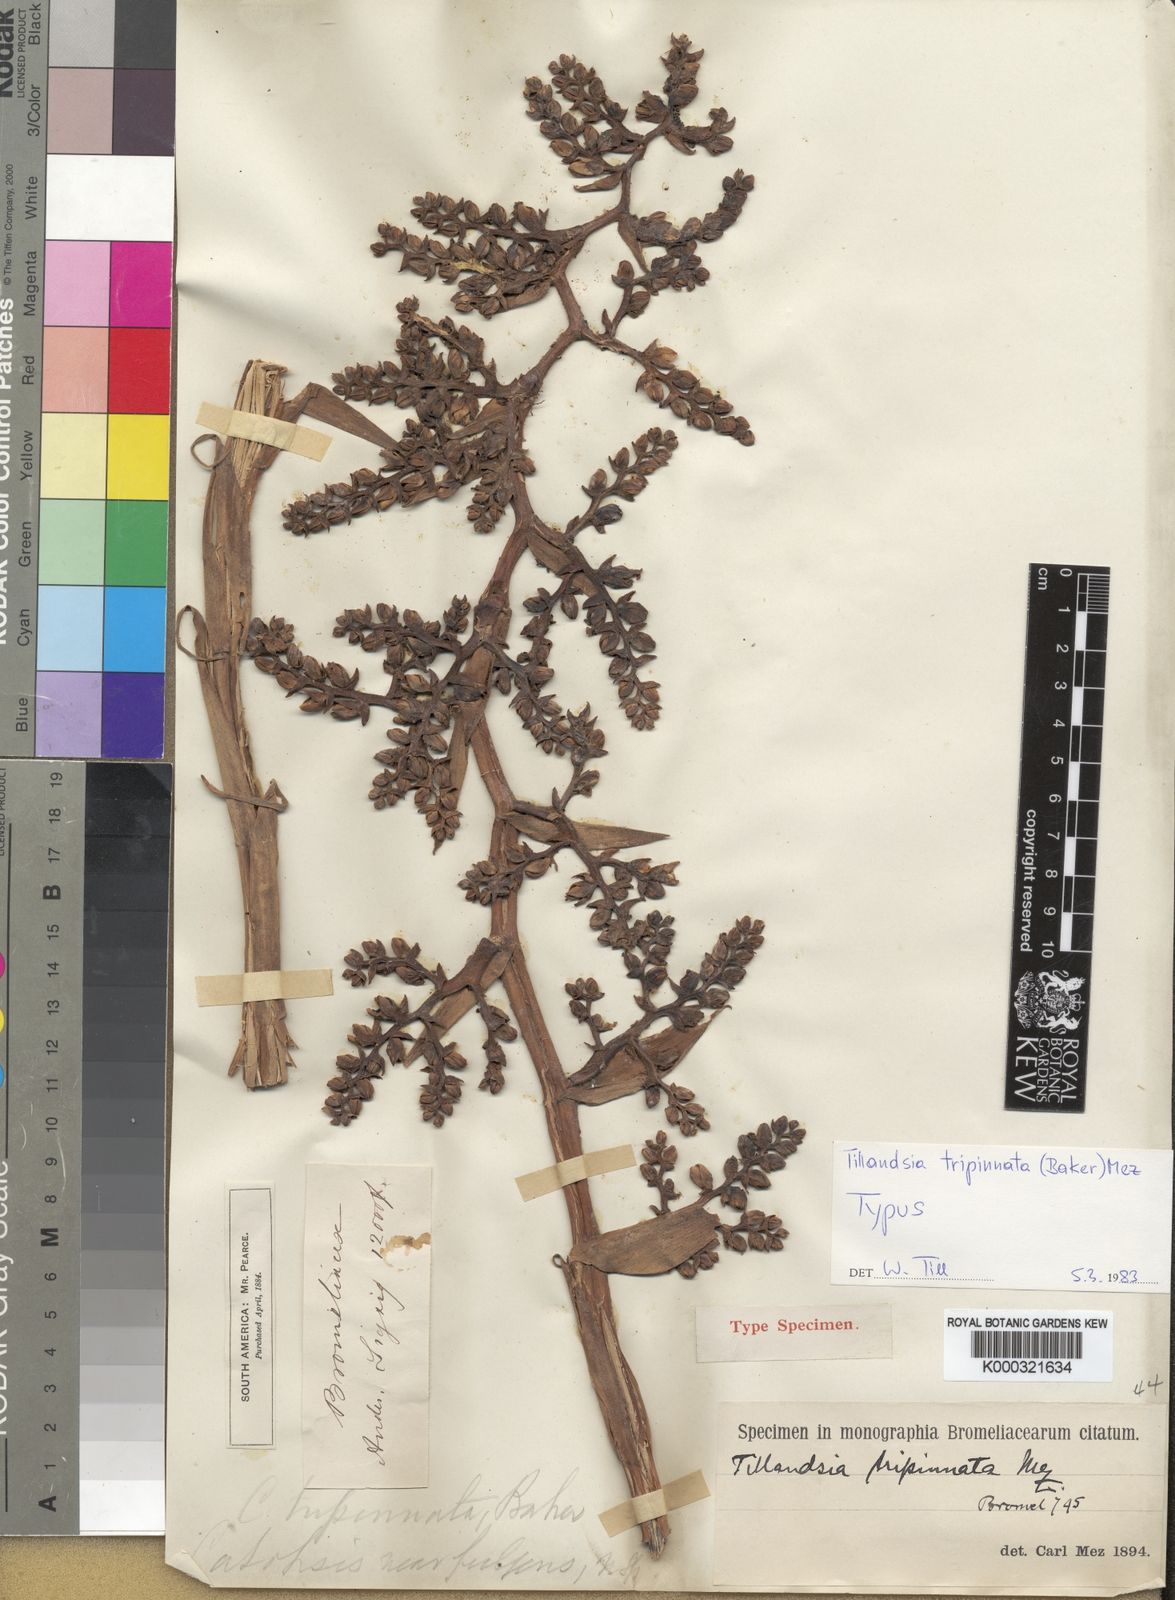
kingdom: Plantae
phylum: Tracheophyta
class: Liliopsida
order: Poales
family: Bromeliaceae
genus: Racinaea
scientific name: Racinaea tripinnata
